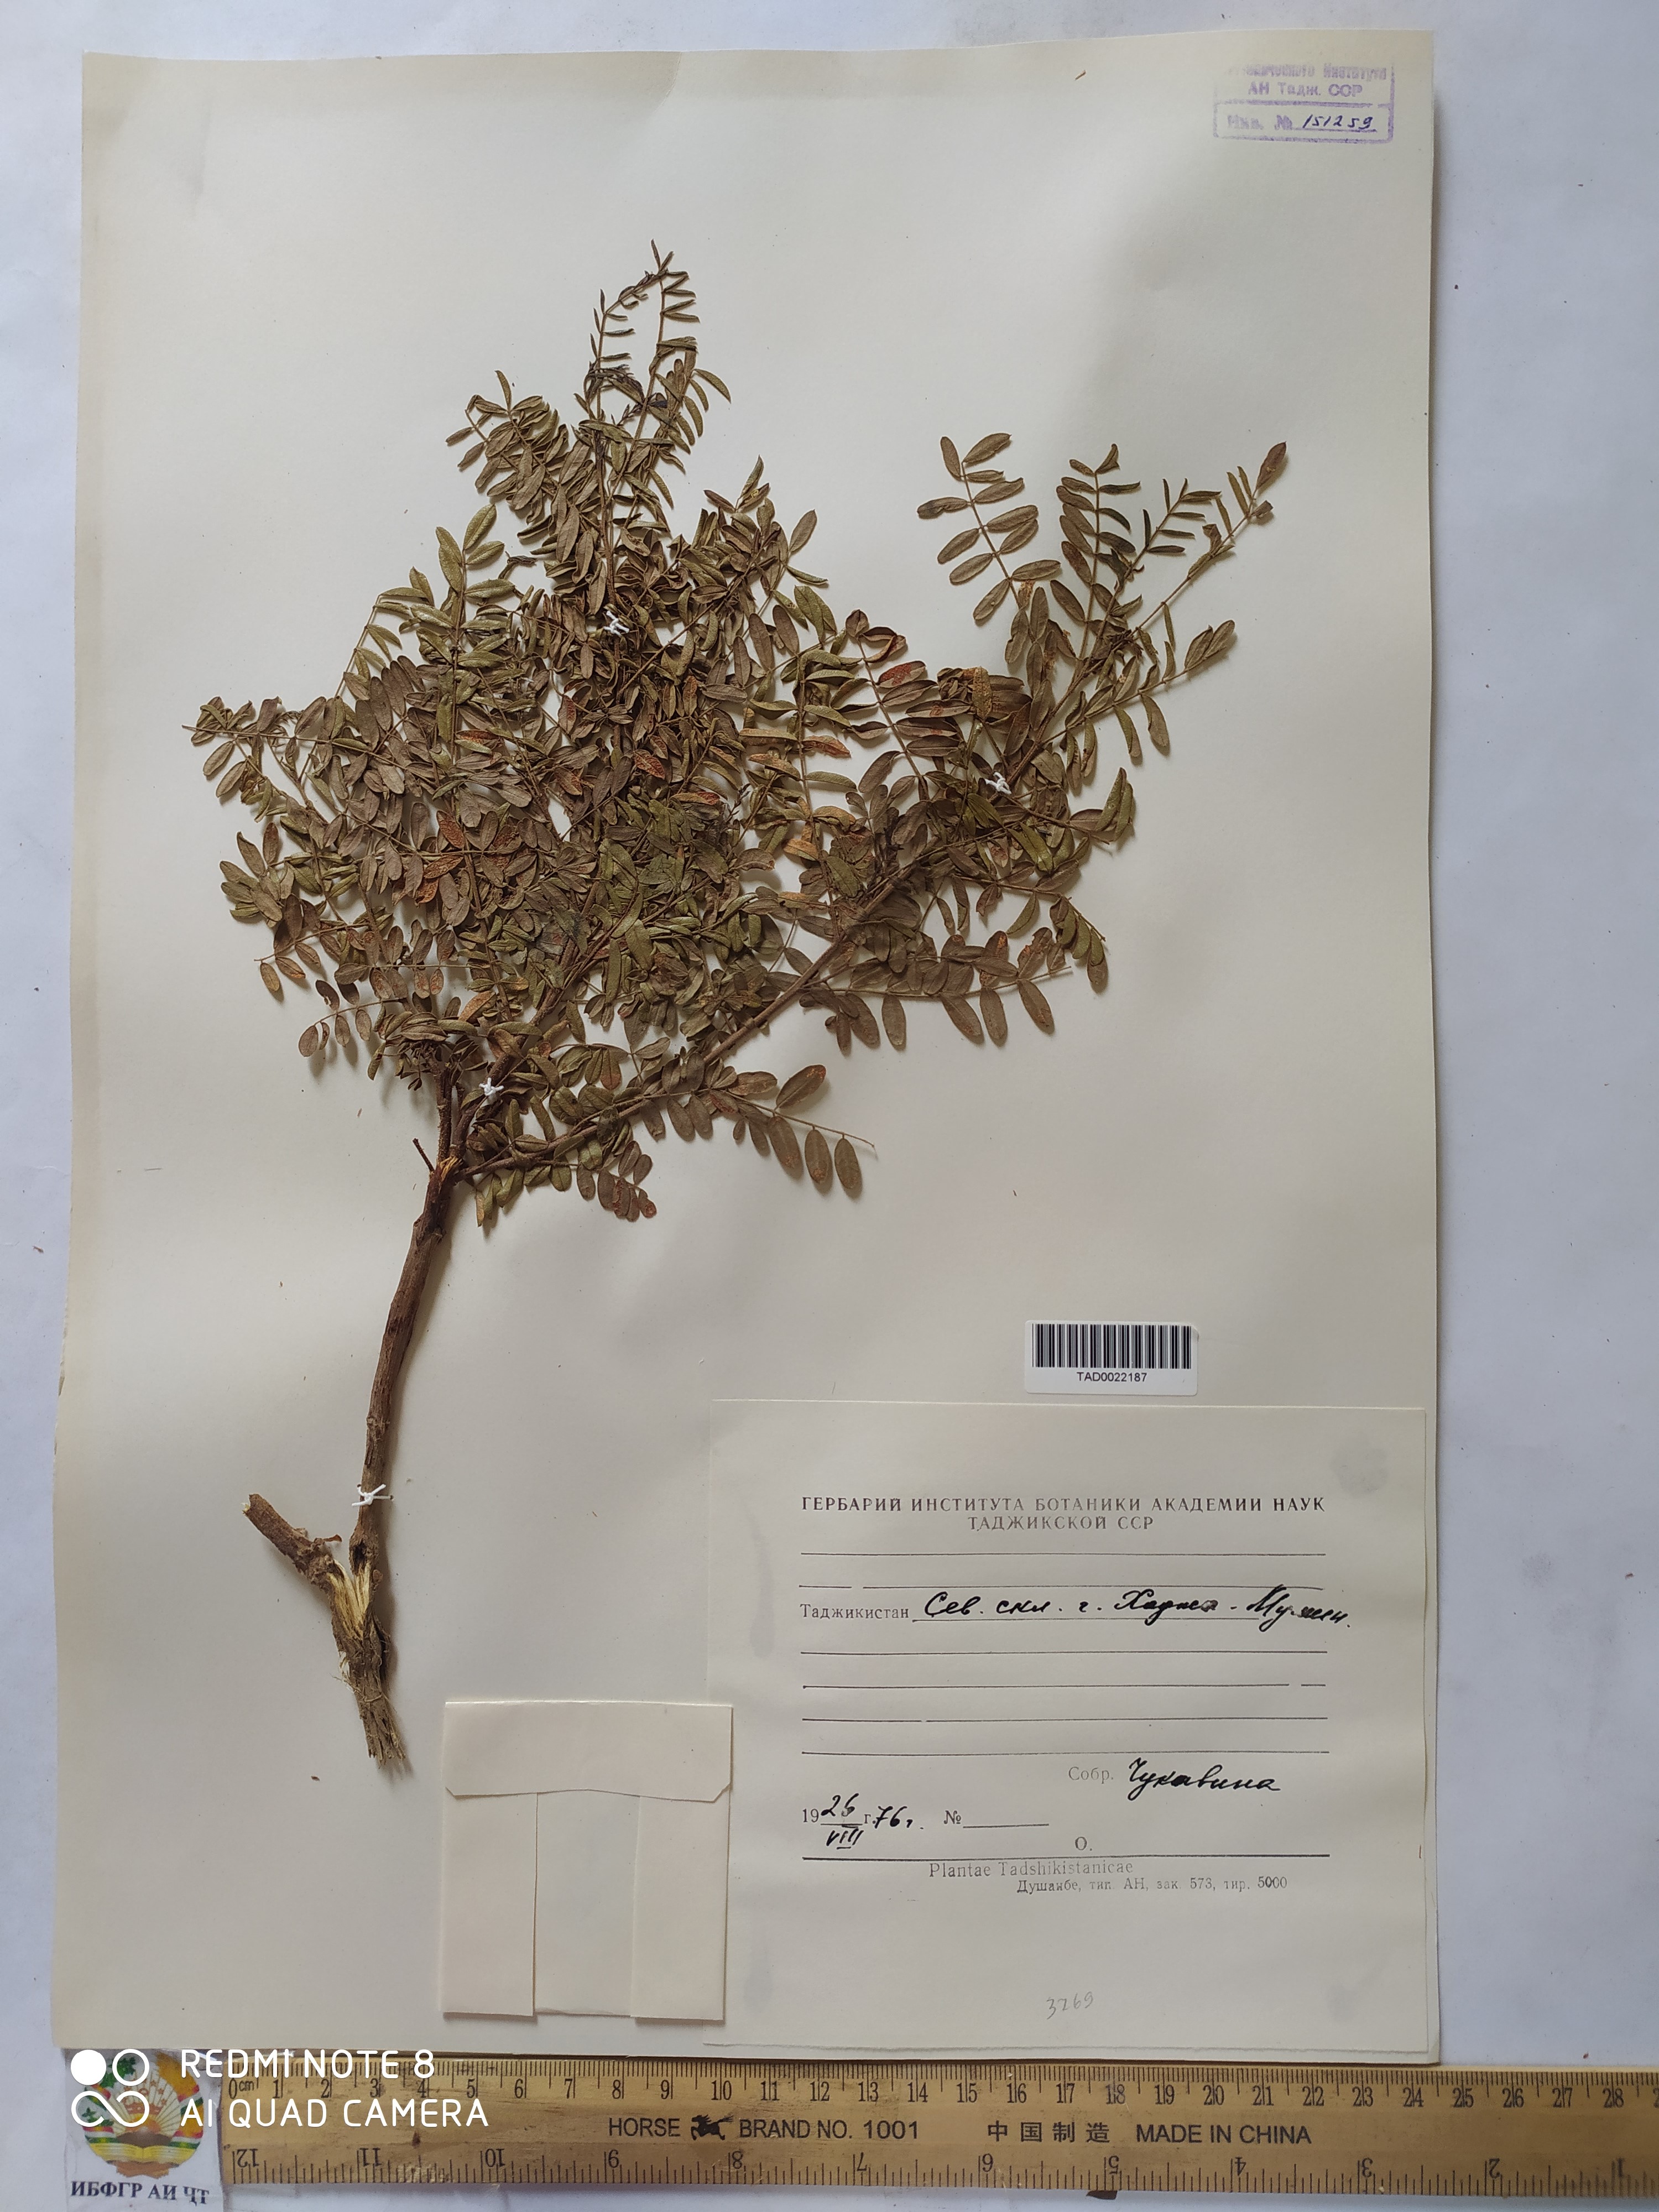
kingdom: Plantae
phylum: Tracheophyta
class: Magnoliopsida
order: Fabales
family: Fabaceae
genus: Glycyrrhiza
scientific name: Glycyrrhiza glabra
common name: Liquorice
